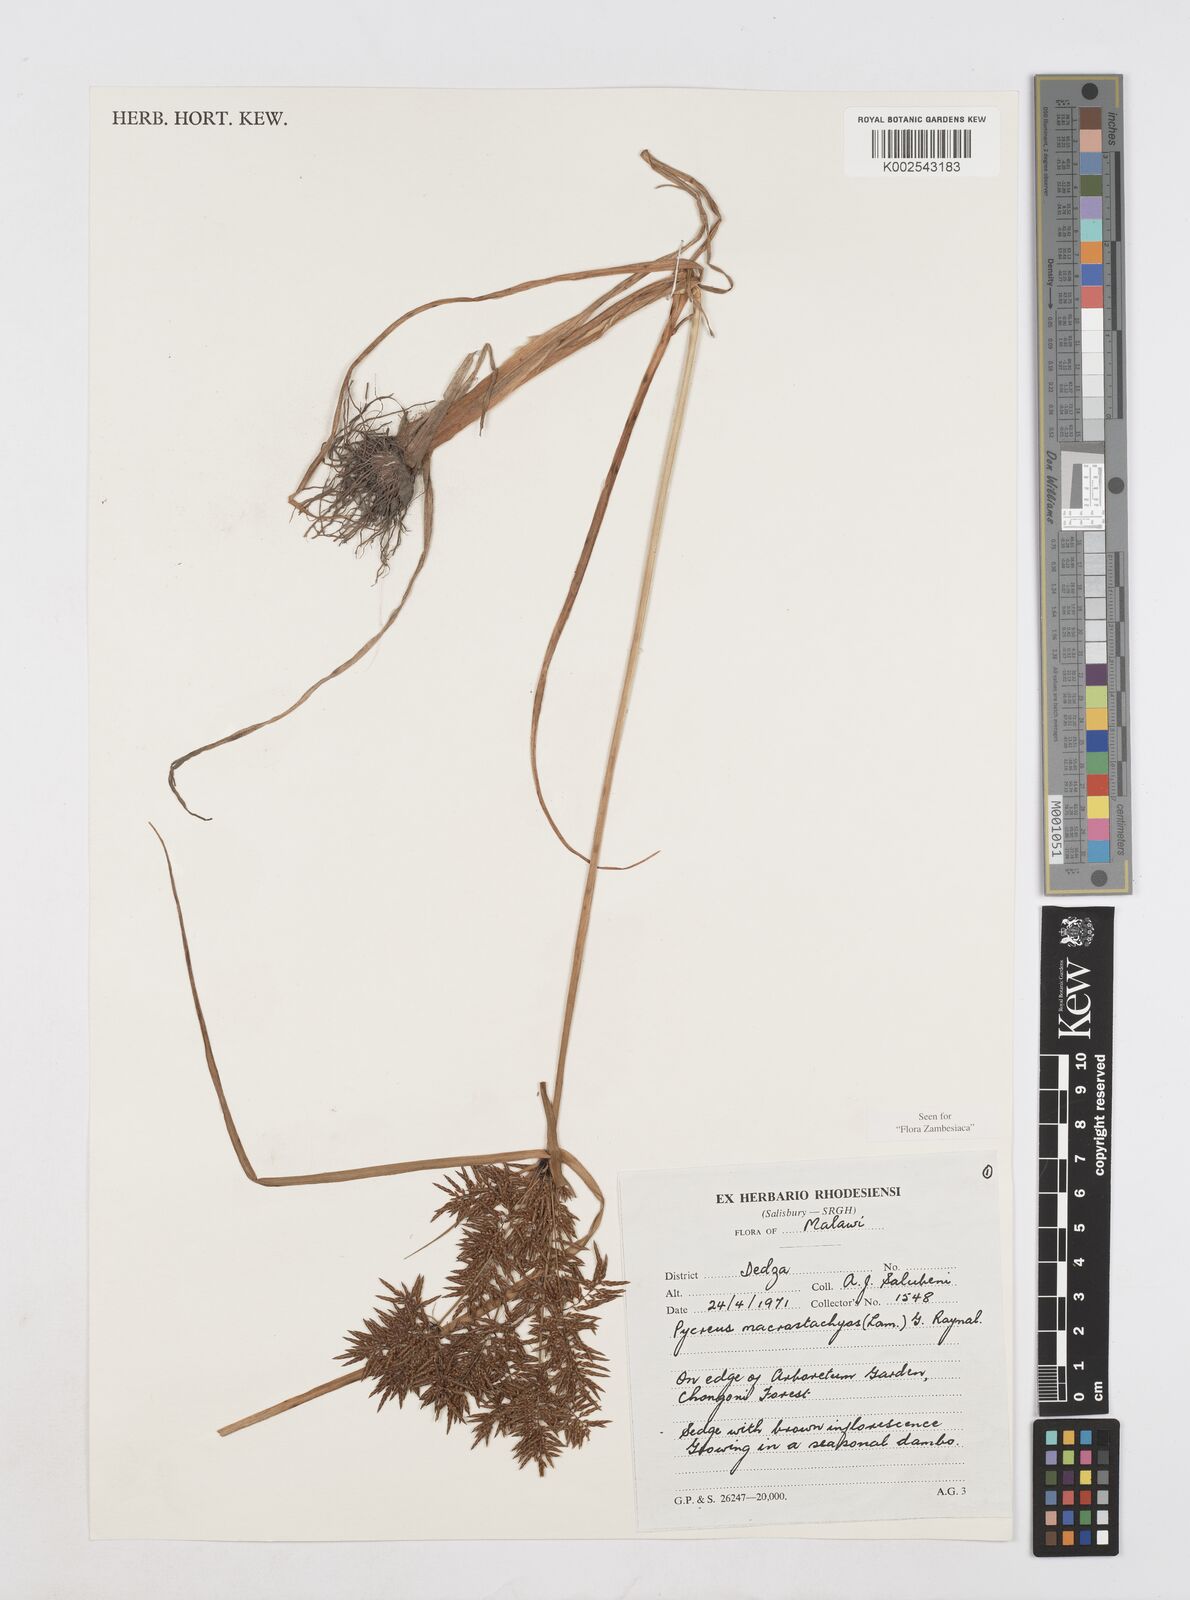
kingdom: Plantae
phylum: Tracheophyta
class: Liliopsida
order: Poales
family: Cyperaceae
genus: Cyperus
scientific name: Cyperus macrostachyos
